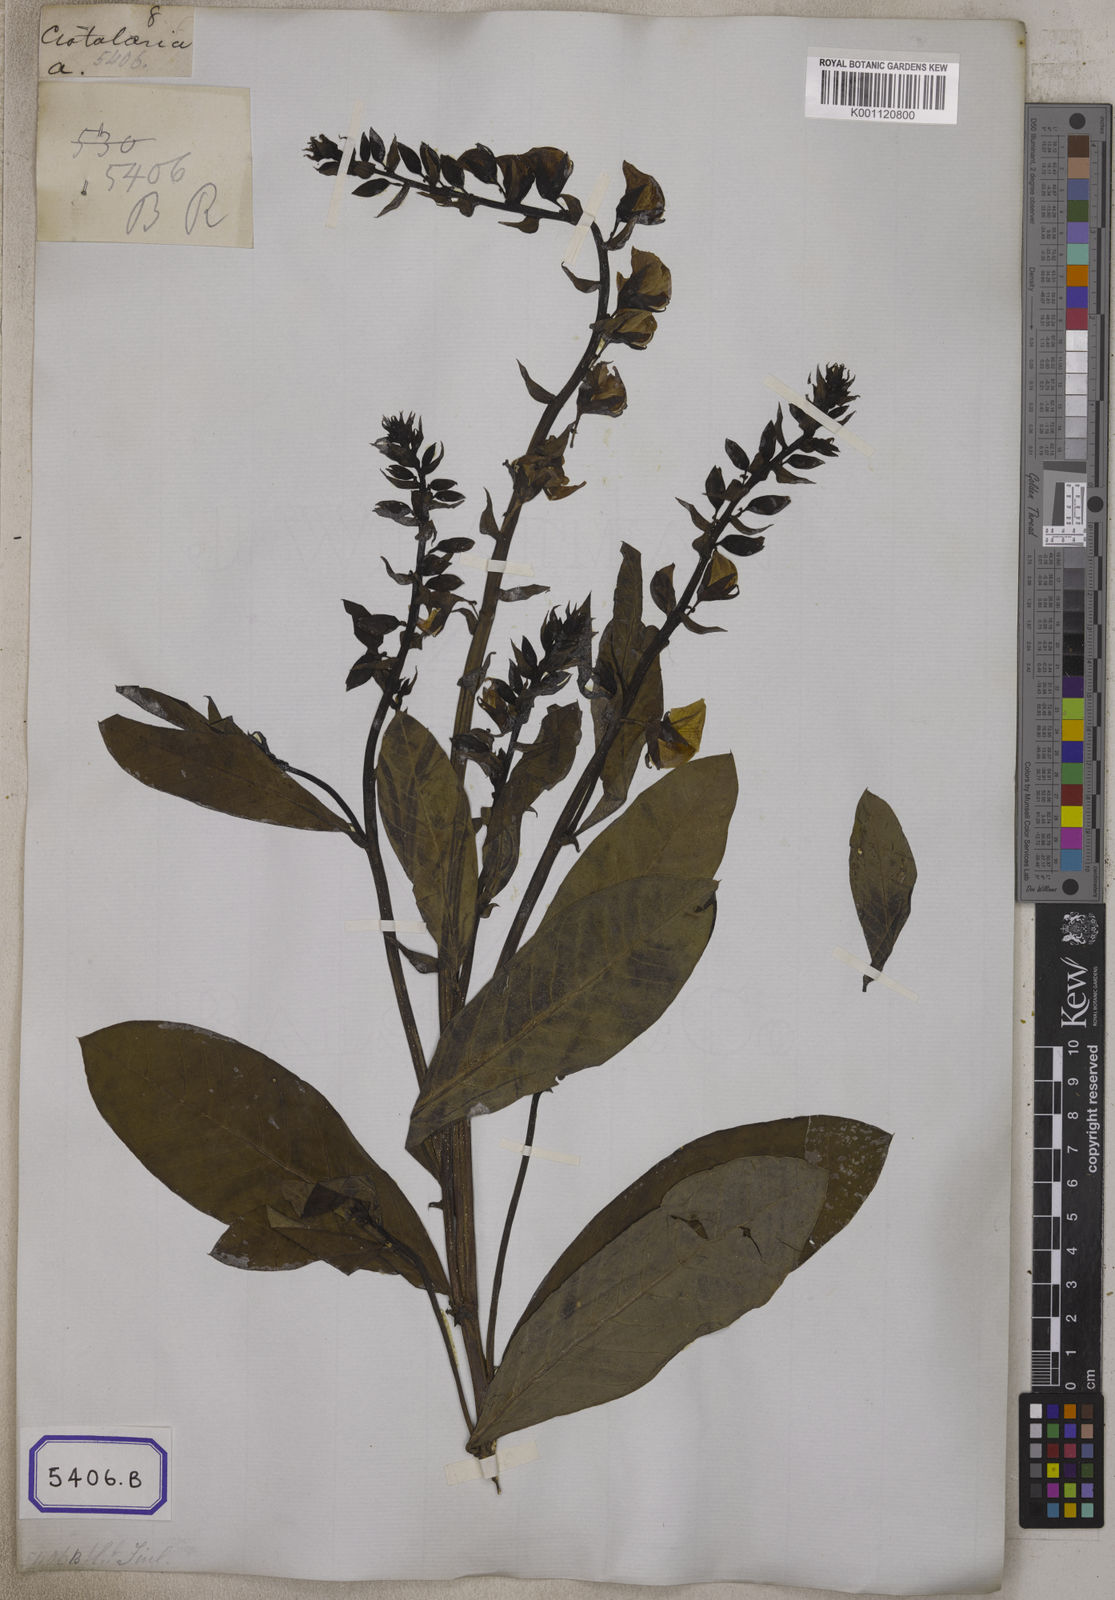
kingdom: Plantae
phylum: Tracheophyta
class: Magnoliopsida
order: Fabales
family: Fabaceae
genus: Crotalaria
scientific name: Crotalaria spectabilis
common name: Showy rattlebox
